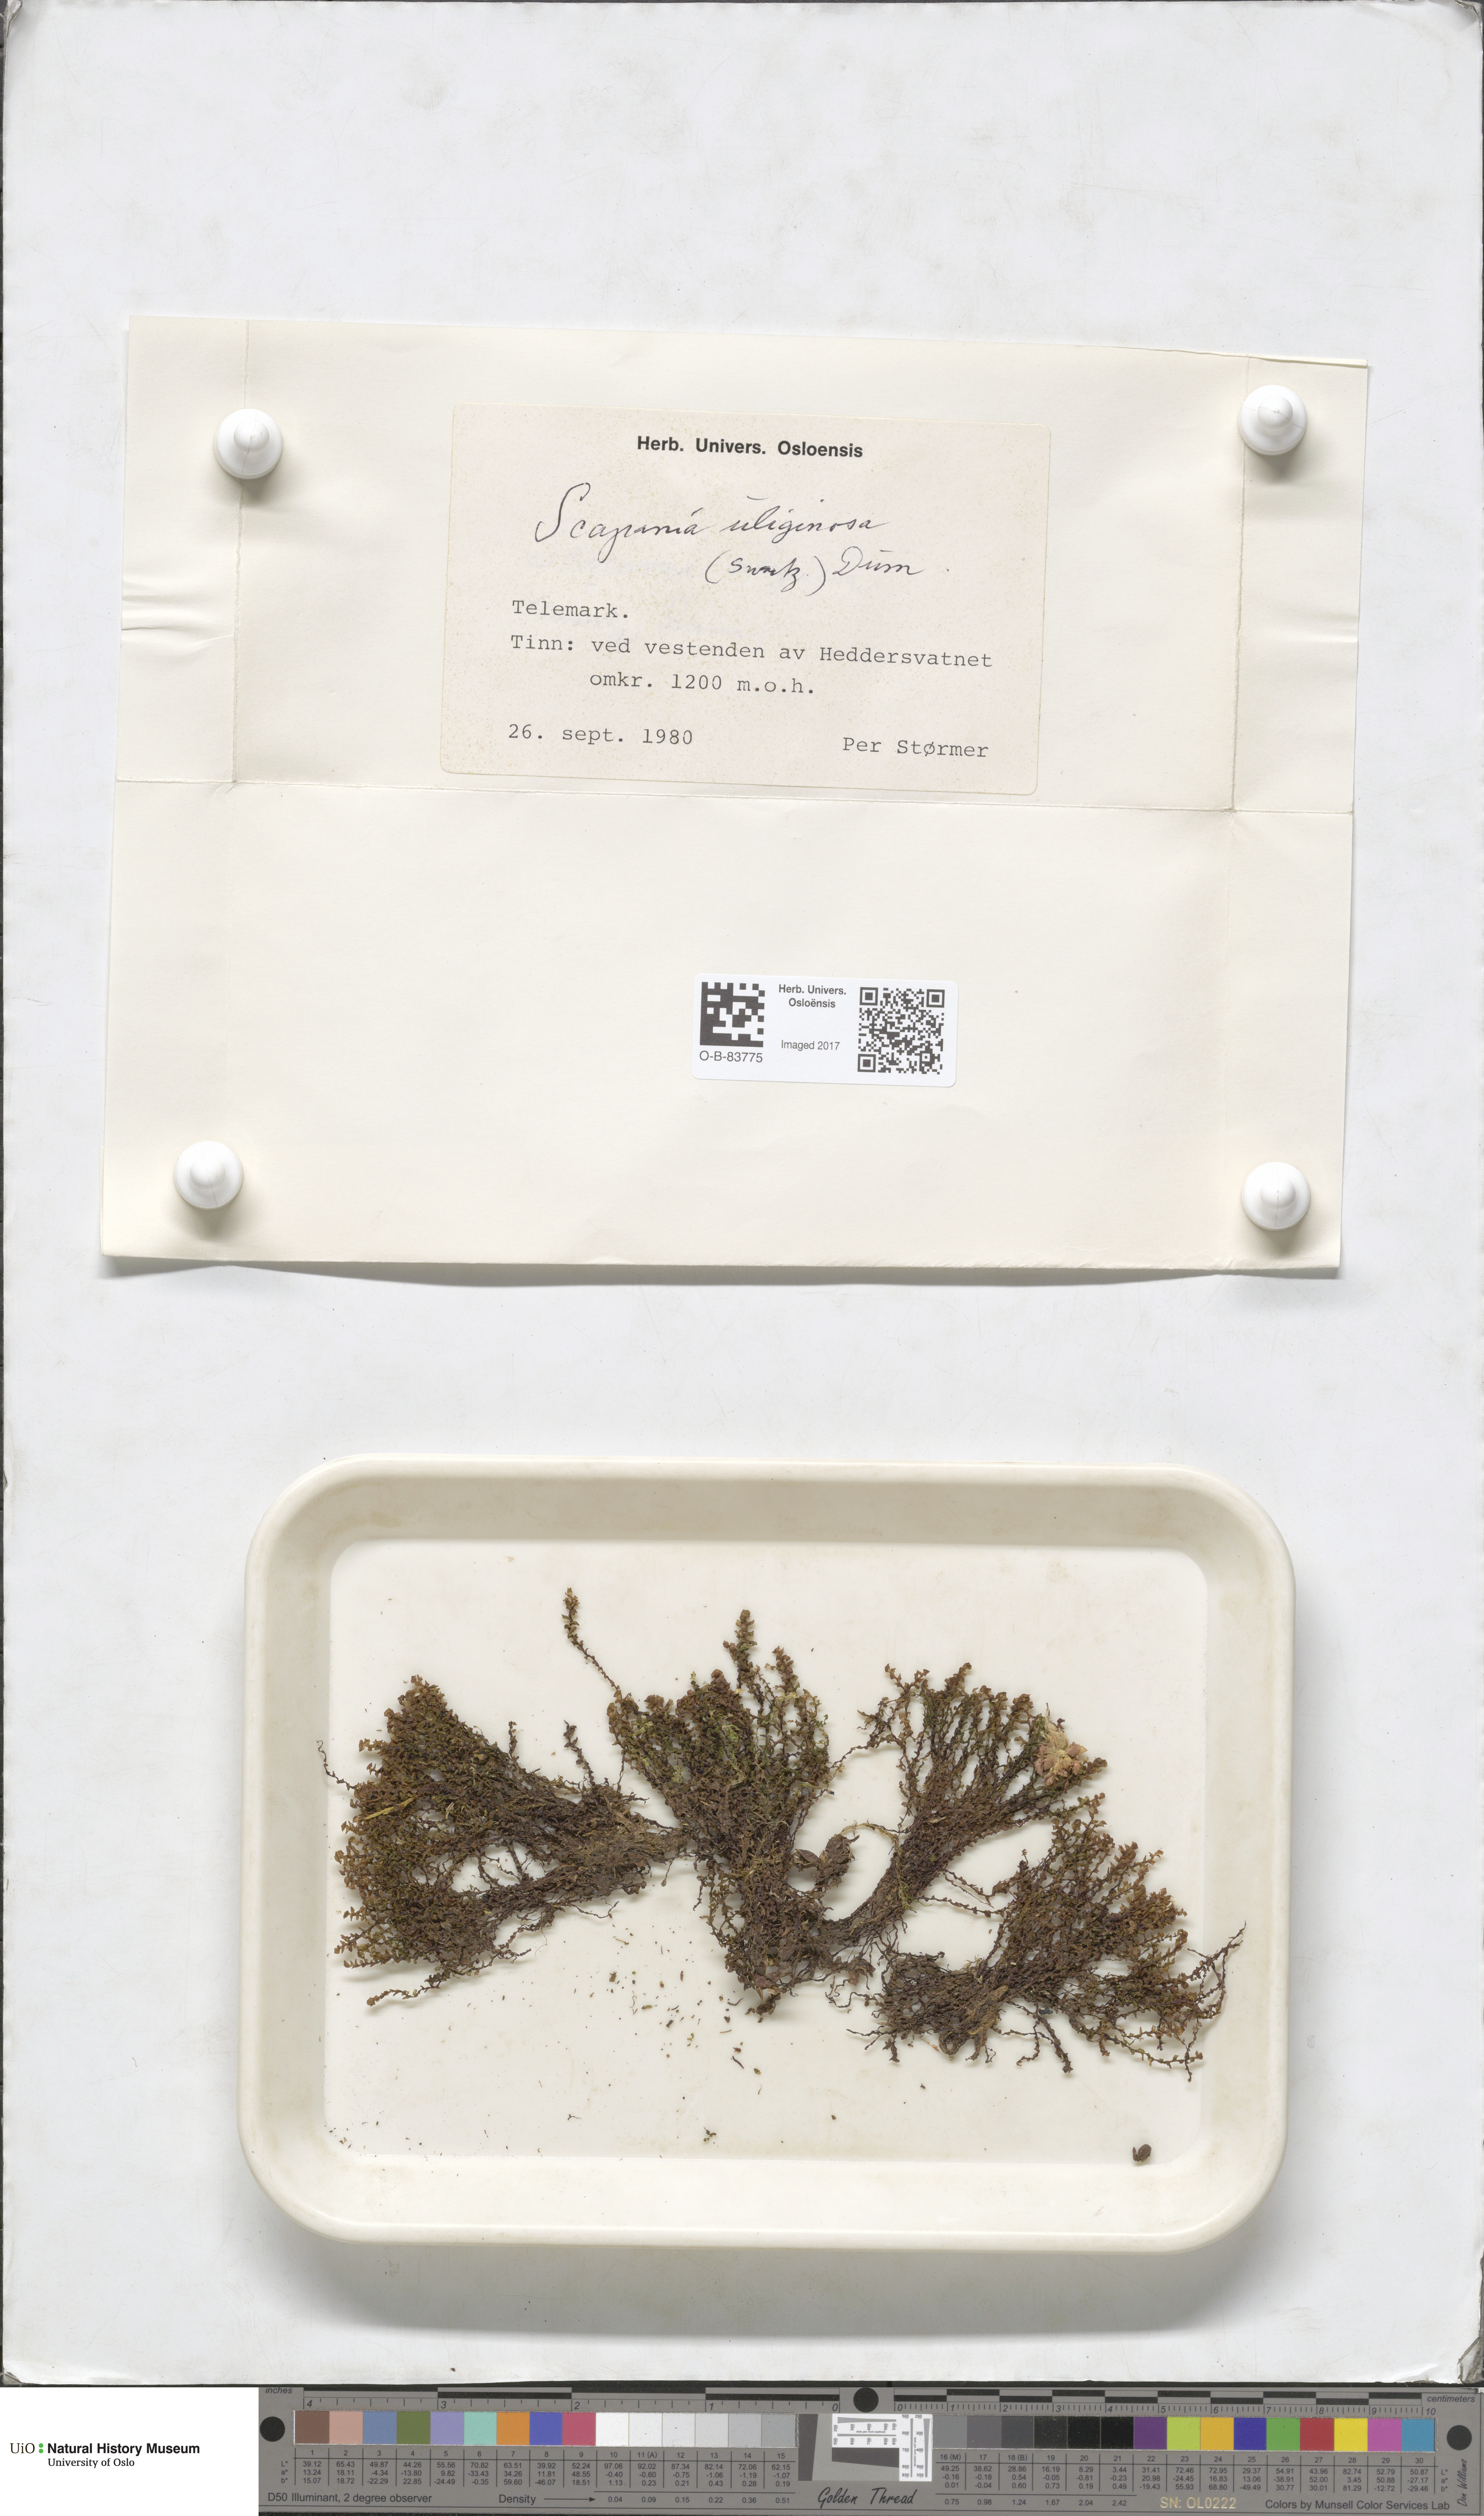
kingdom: Plantae
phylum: Marchantiophyta
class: Jungermanniopsida
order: Jungermanniales
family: Scapaniaceae
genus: Scapania
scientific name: Scapania uliginosa
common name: Marsh earwort
